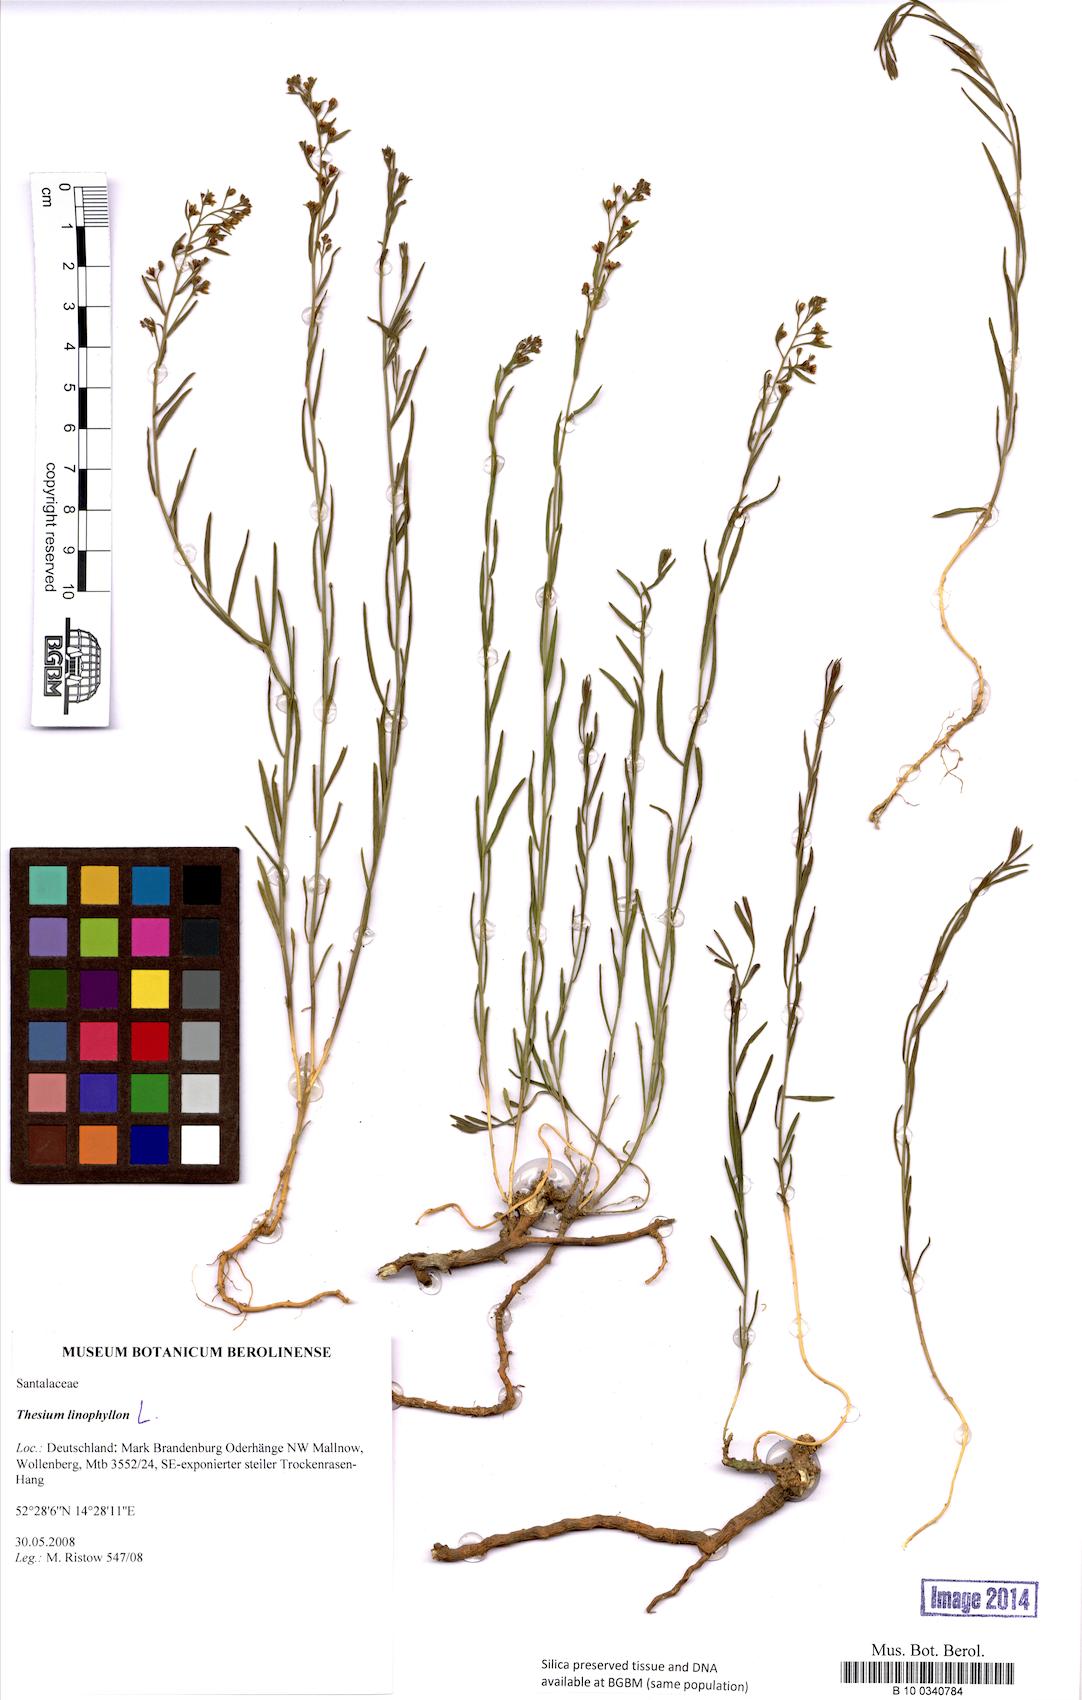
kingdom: Plantae
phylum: Tracheophyta
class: Magnoliopsida
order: Santalales
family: Thesiaceae
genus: Thesium
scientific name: Thesium linophyllon
